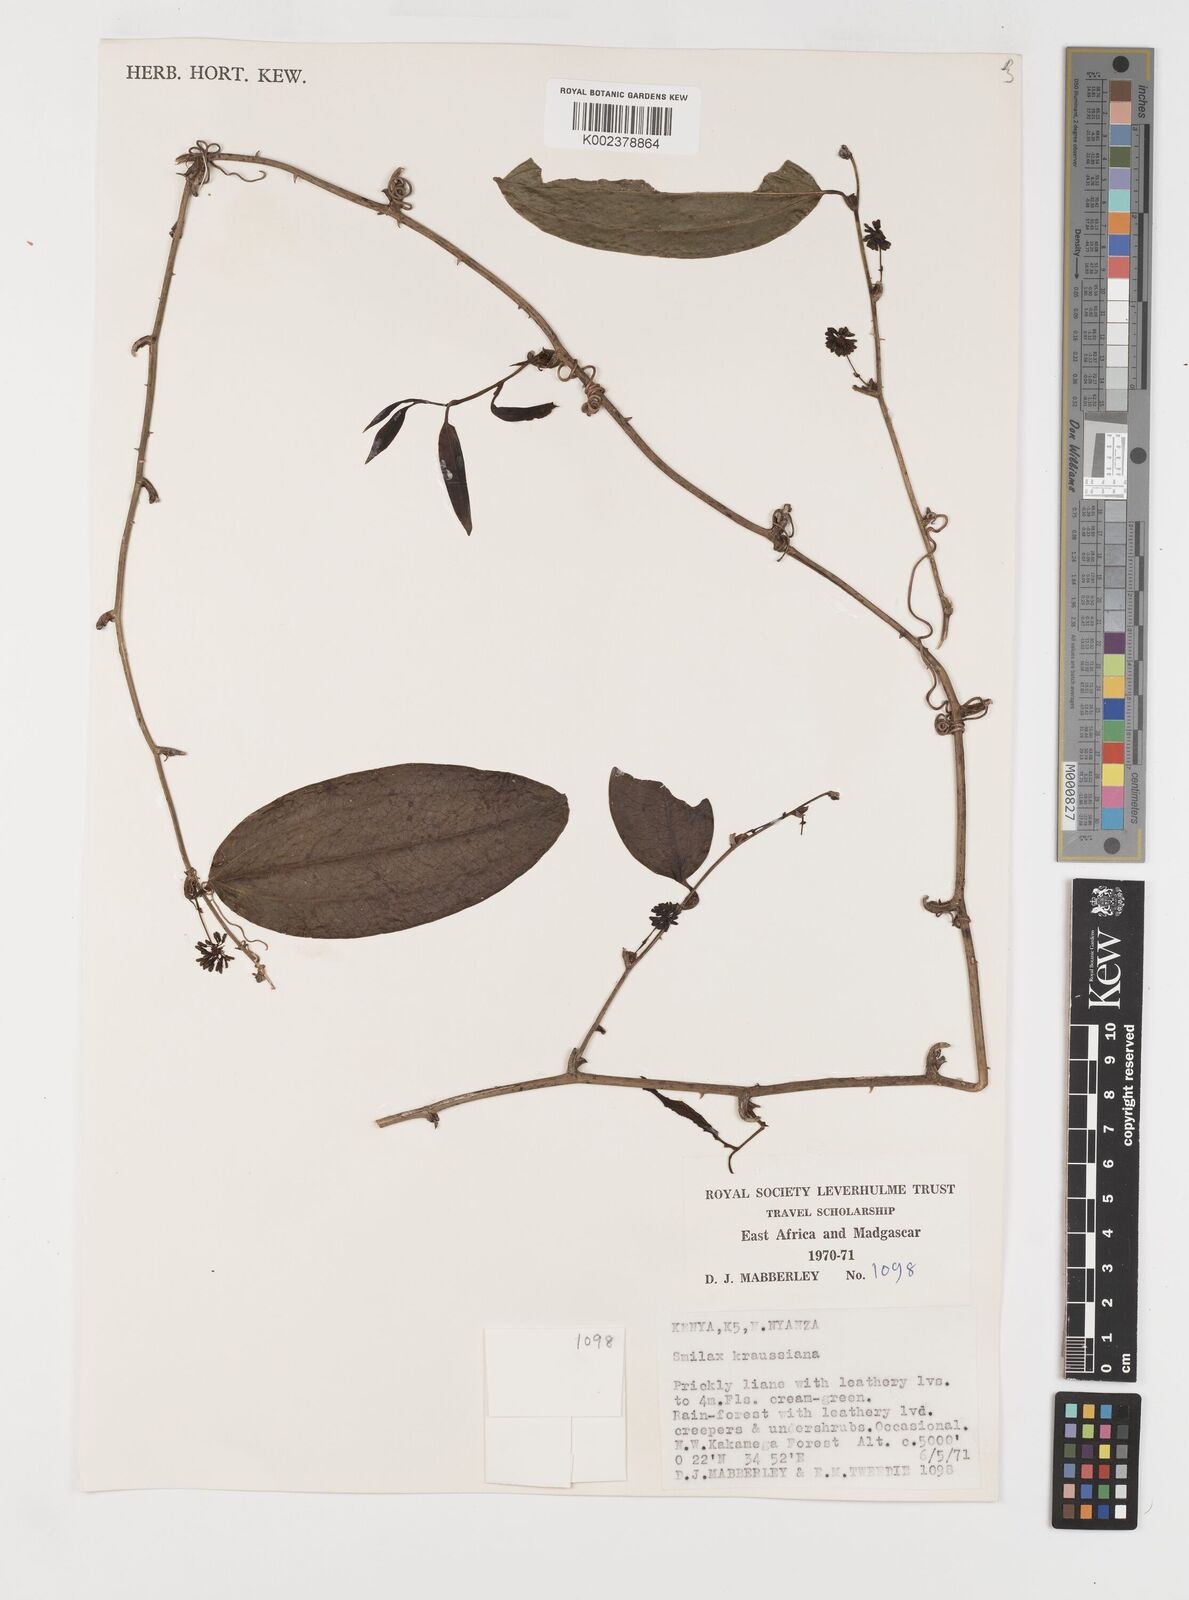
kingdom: Plantae
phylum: Tracheophyta
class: Liliopsida
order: Liliales
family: Smilacaceae
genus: Smilax
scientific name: Smilax anceps
